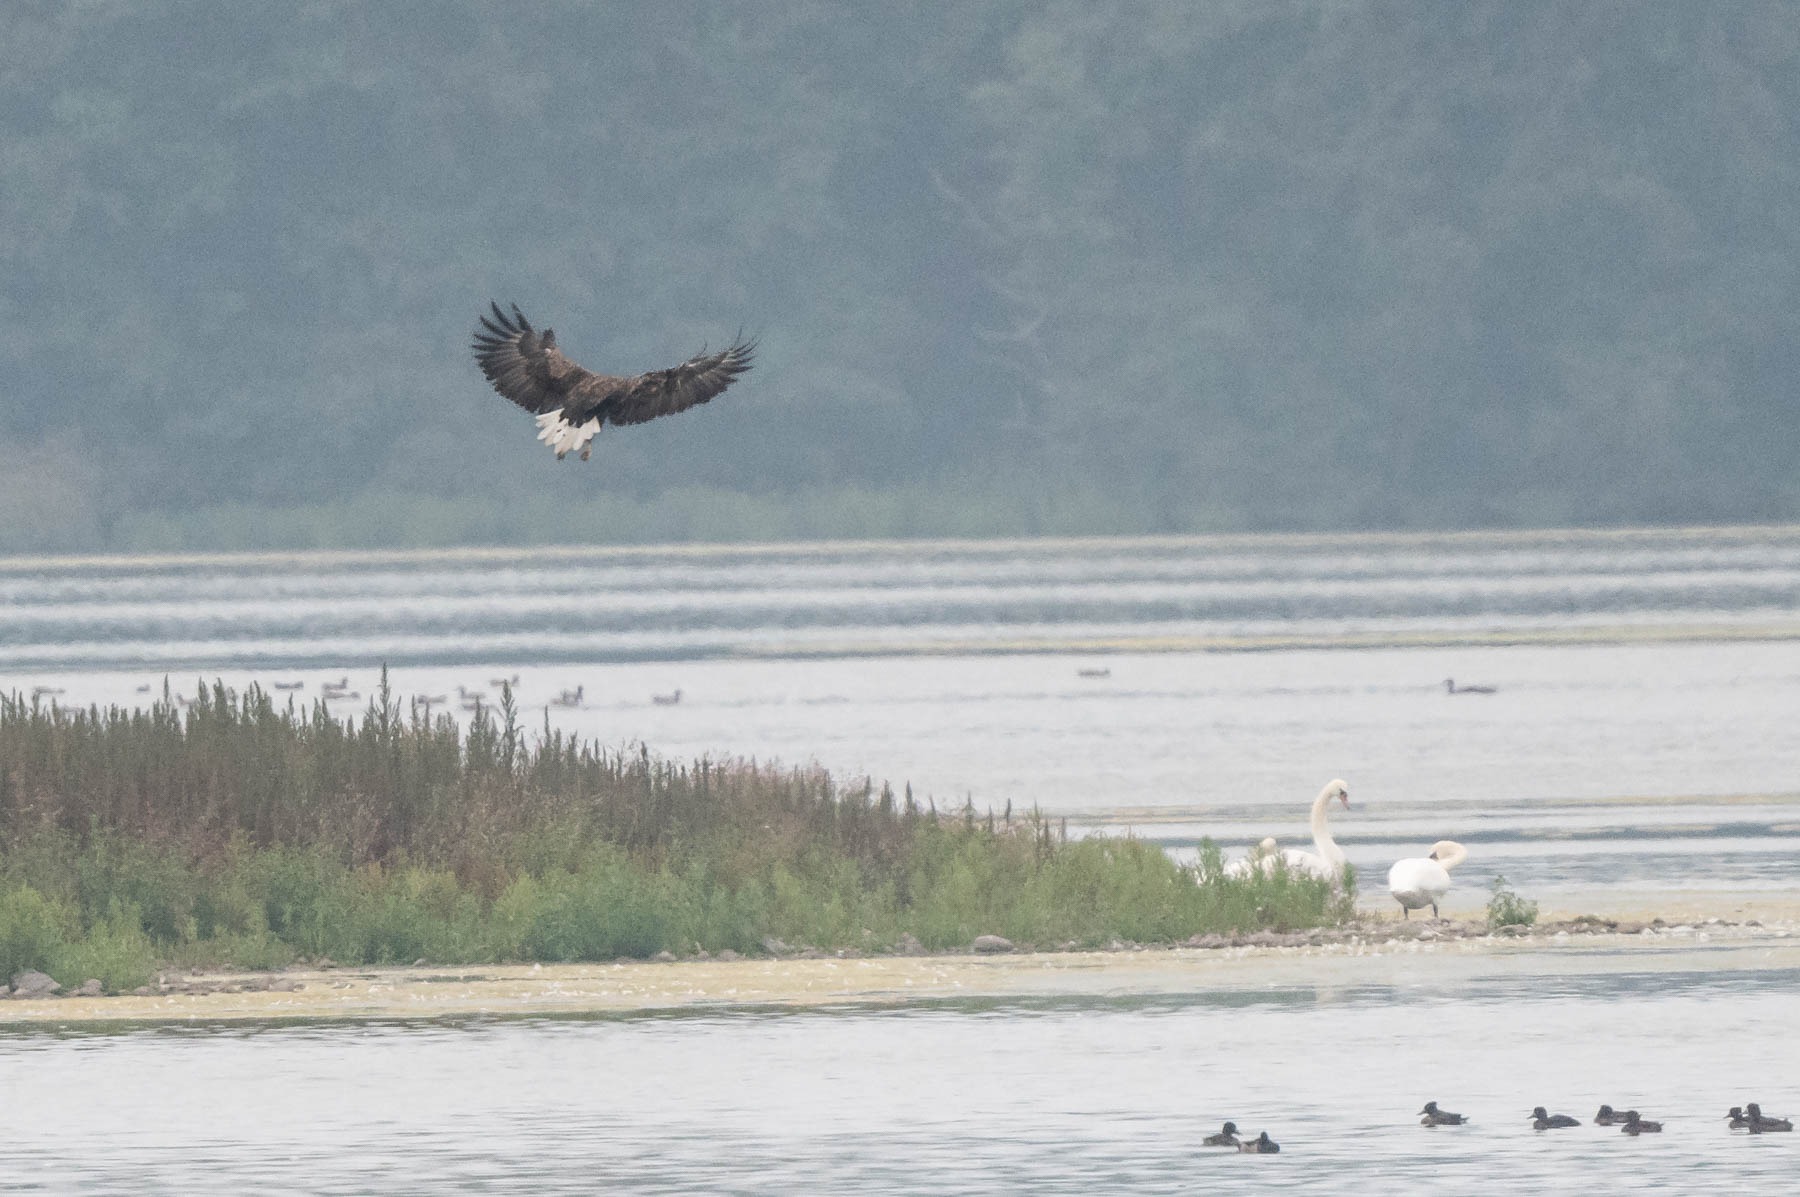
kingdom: Animalia
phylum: Chordata
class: Aves
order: Accipitriformes
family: Accipitridae
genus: Haliaeetus
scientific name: Haliaeetus albicilla
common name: Havørn
